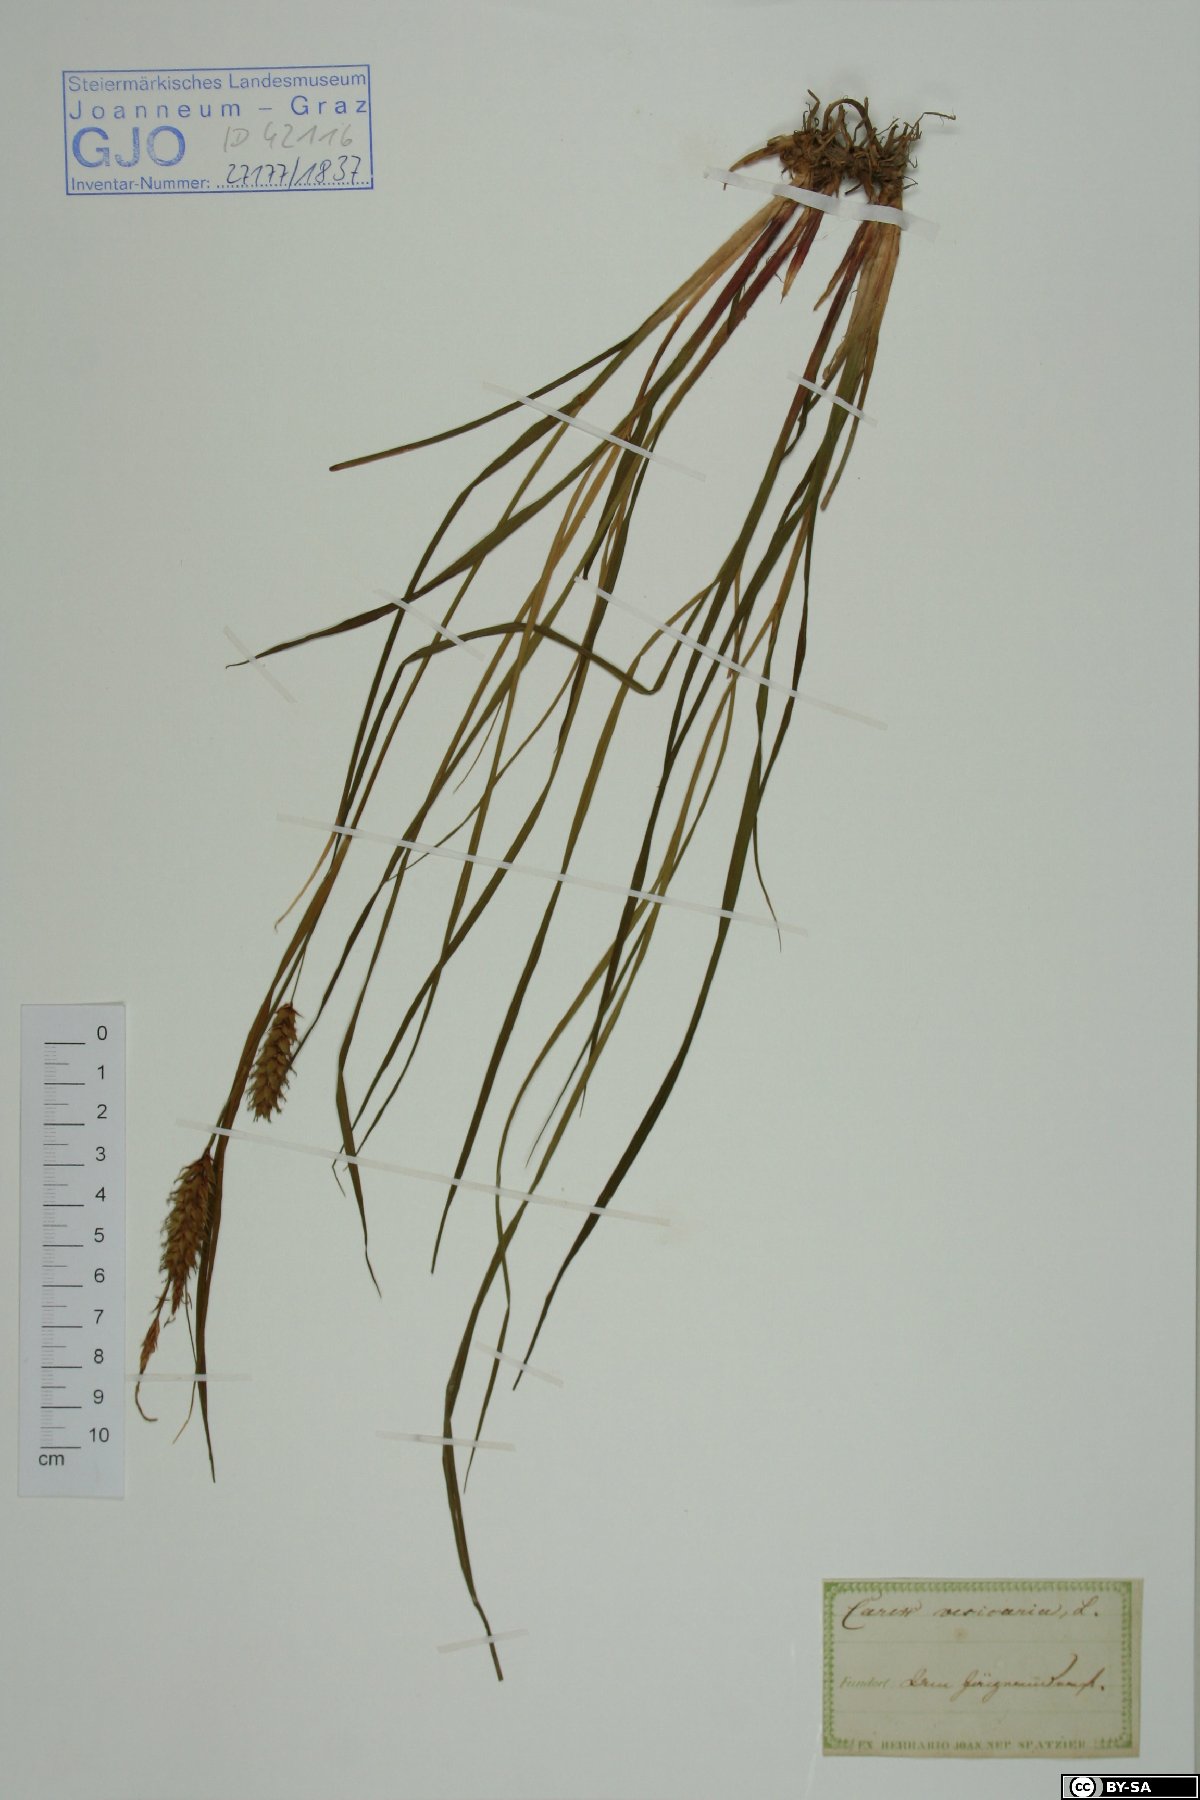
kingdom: Plantae
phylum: Tracheophyta
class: Liliopsida
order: Poales
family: Cyperaceae
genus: Carex
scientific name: Carex vesicaria
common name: Bladder-sedge
